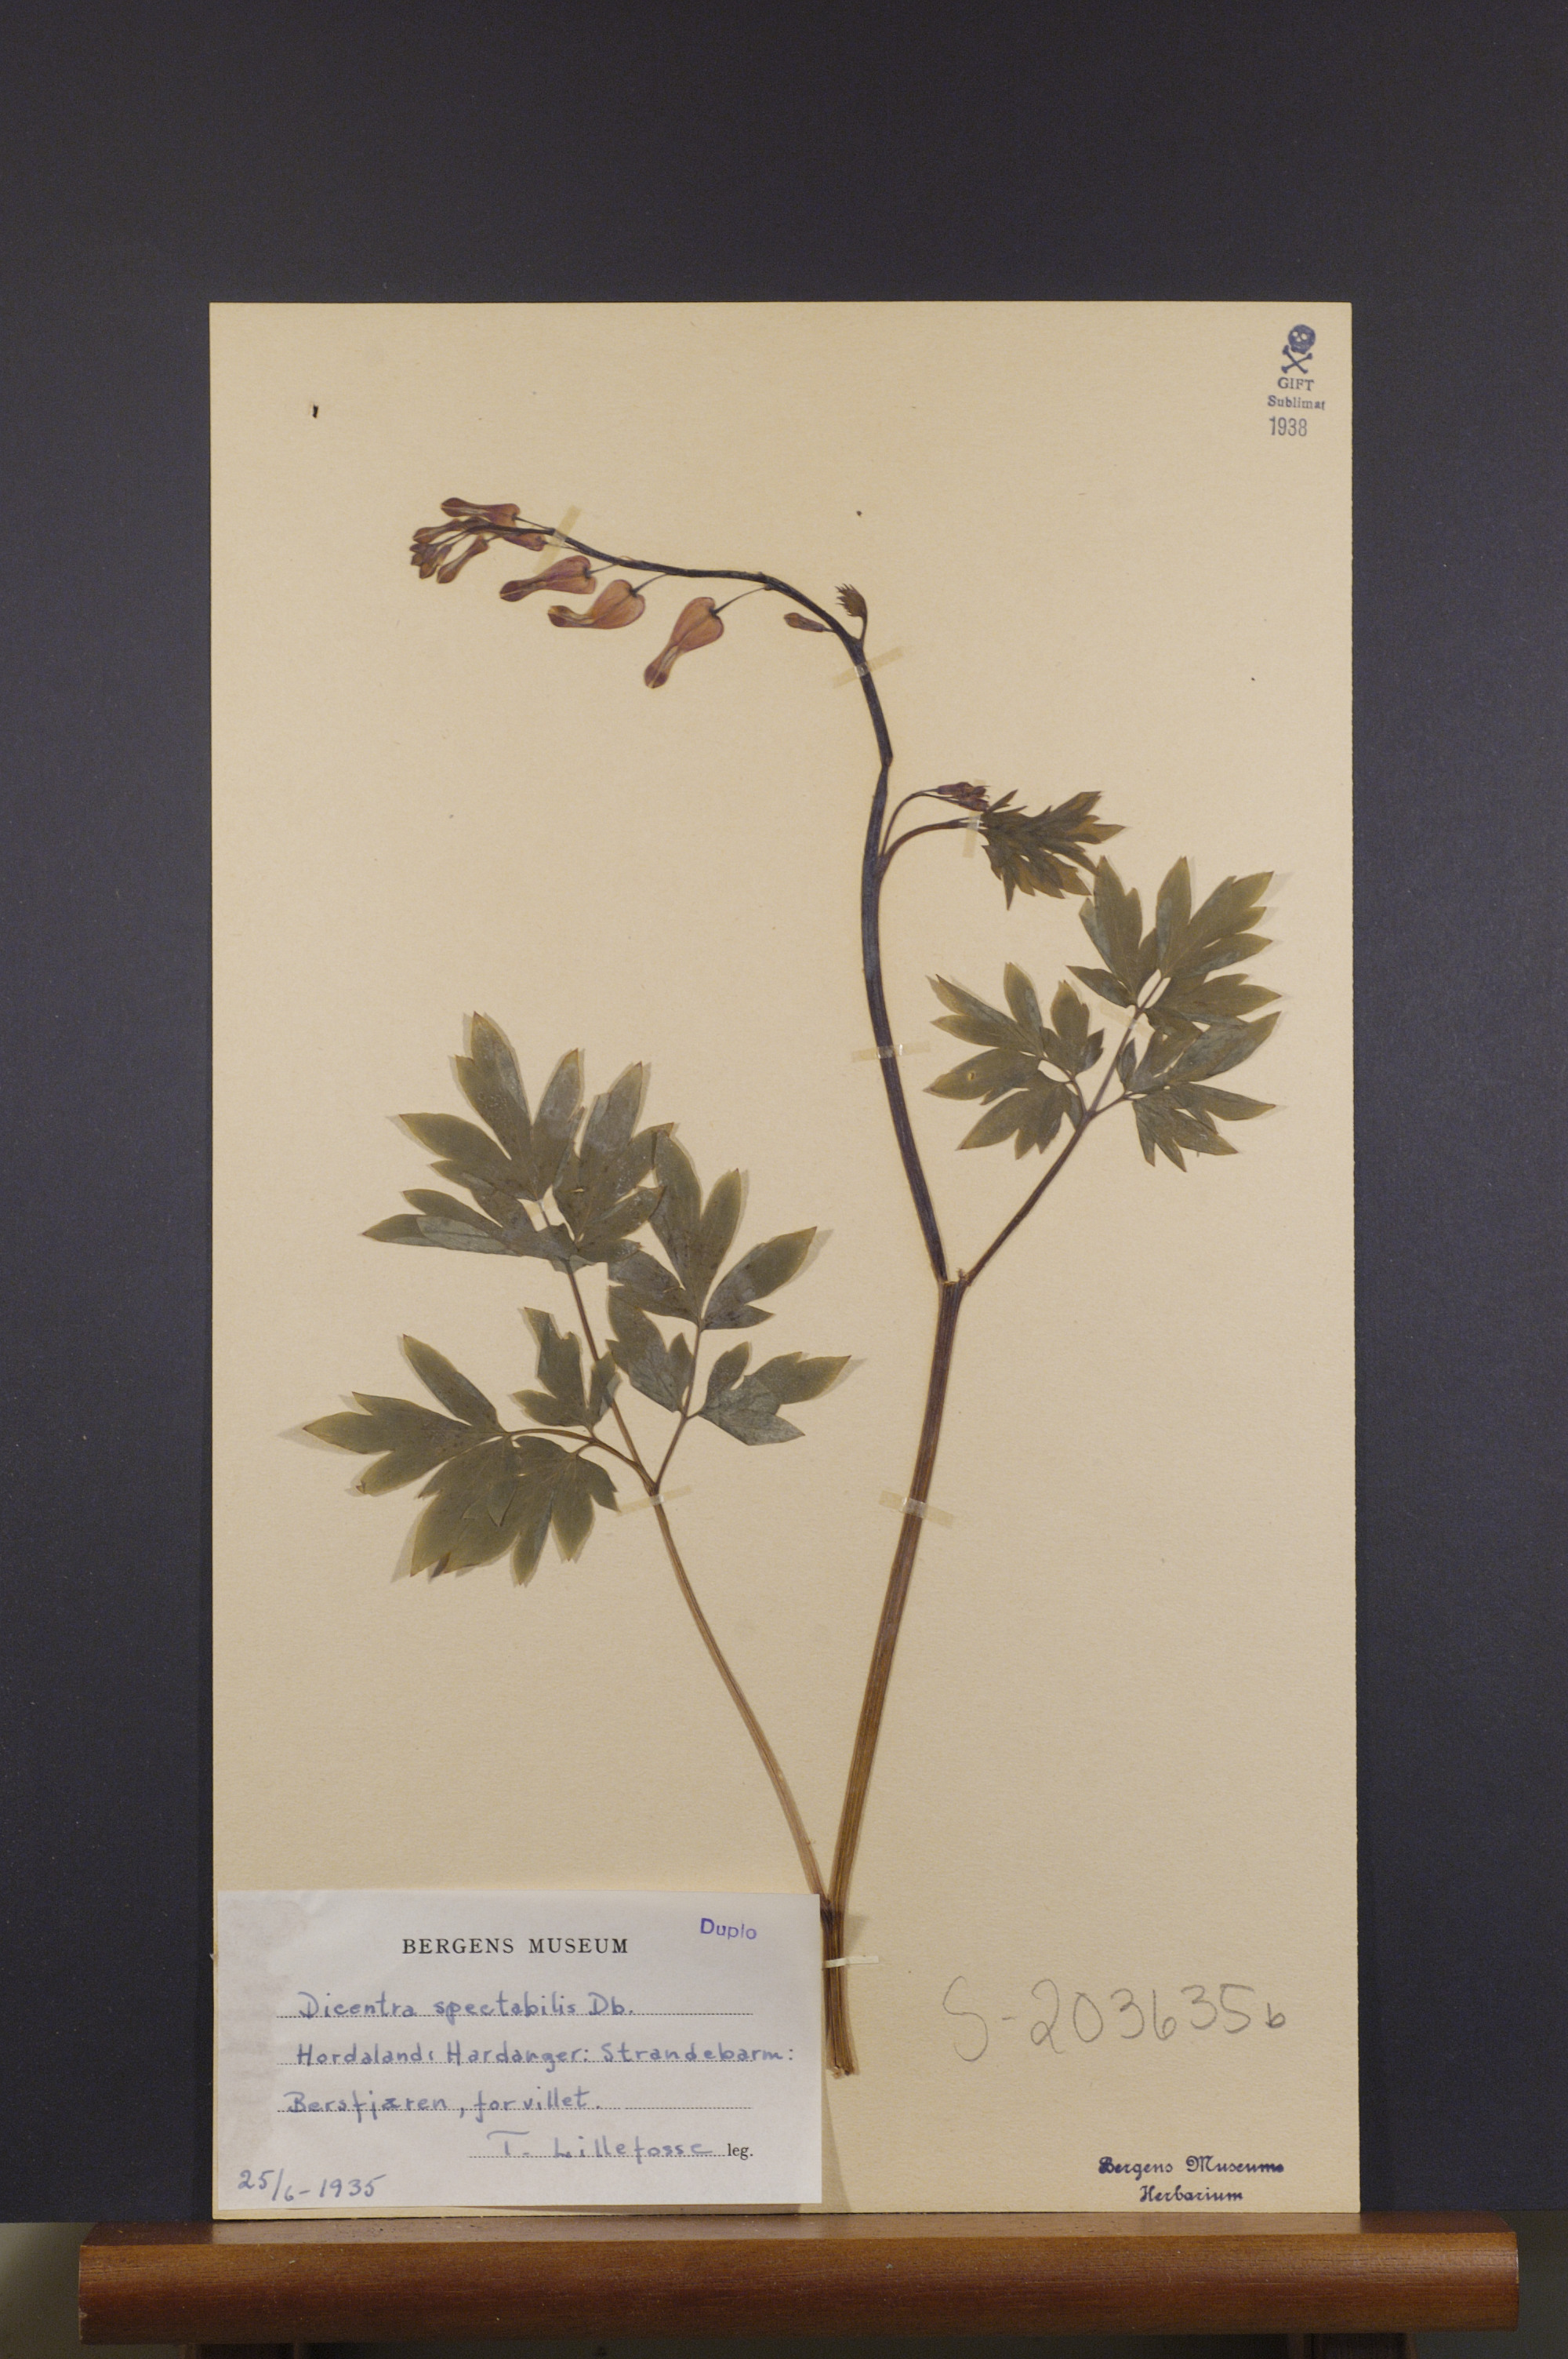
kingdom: Plantae
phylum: Tracheophyta
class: Magnoliopsida
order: Ranunculales
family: Papaveraceae
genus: Lamprocapnos
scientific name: Lamprocapnos spectabilis
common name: Asian bleeding-heart
